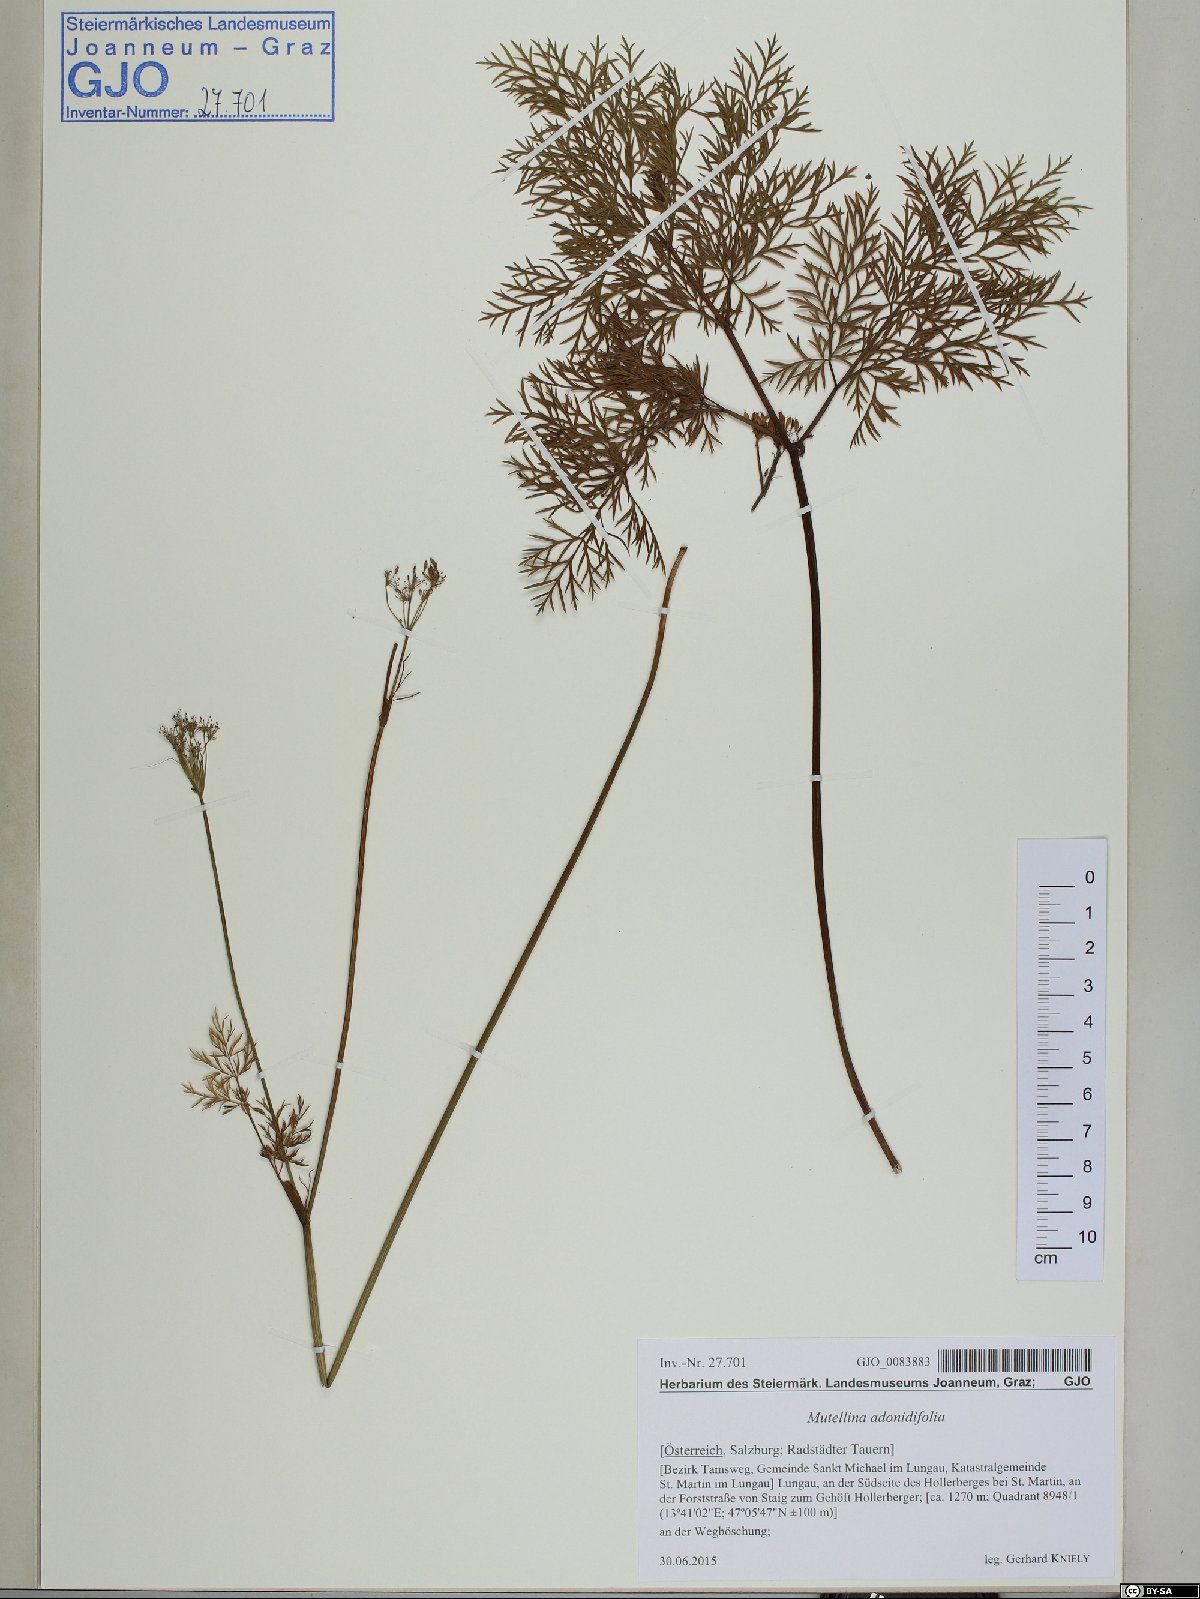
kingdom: Plantae
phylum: Tracheophyta
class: Magnoliopsida
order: Apiales
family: Apiaceae
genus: Mutellina
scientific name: Mutellina adonidifolia
